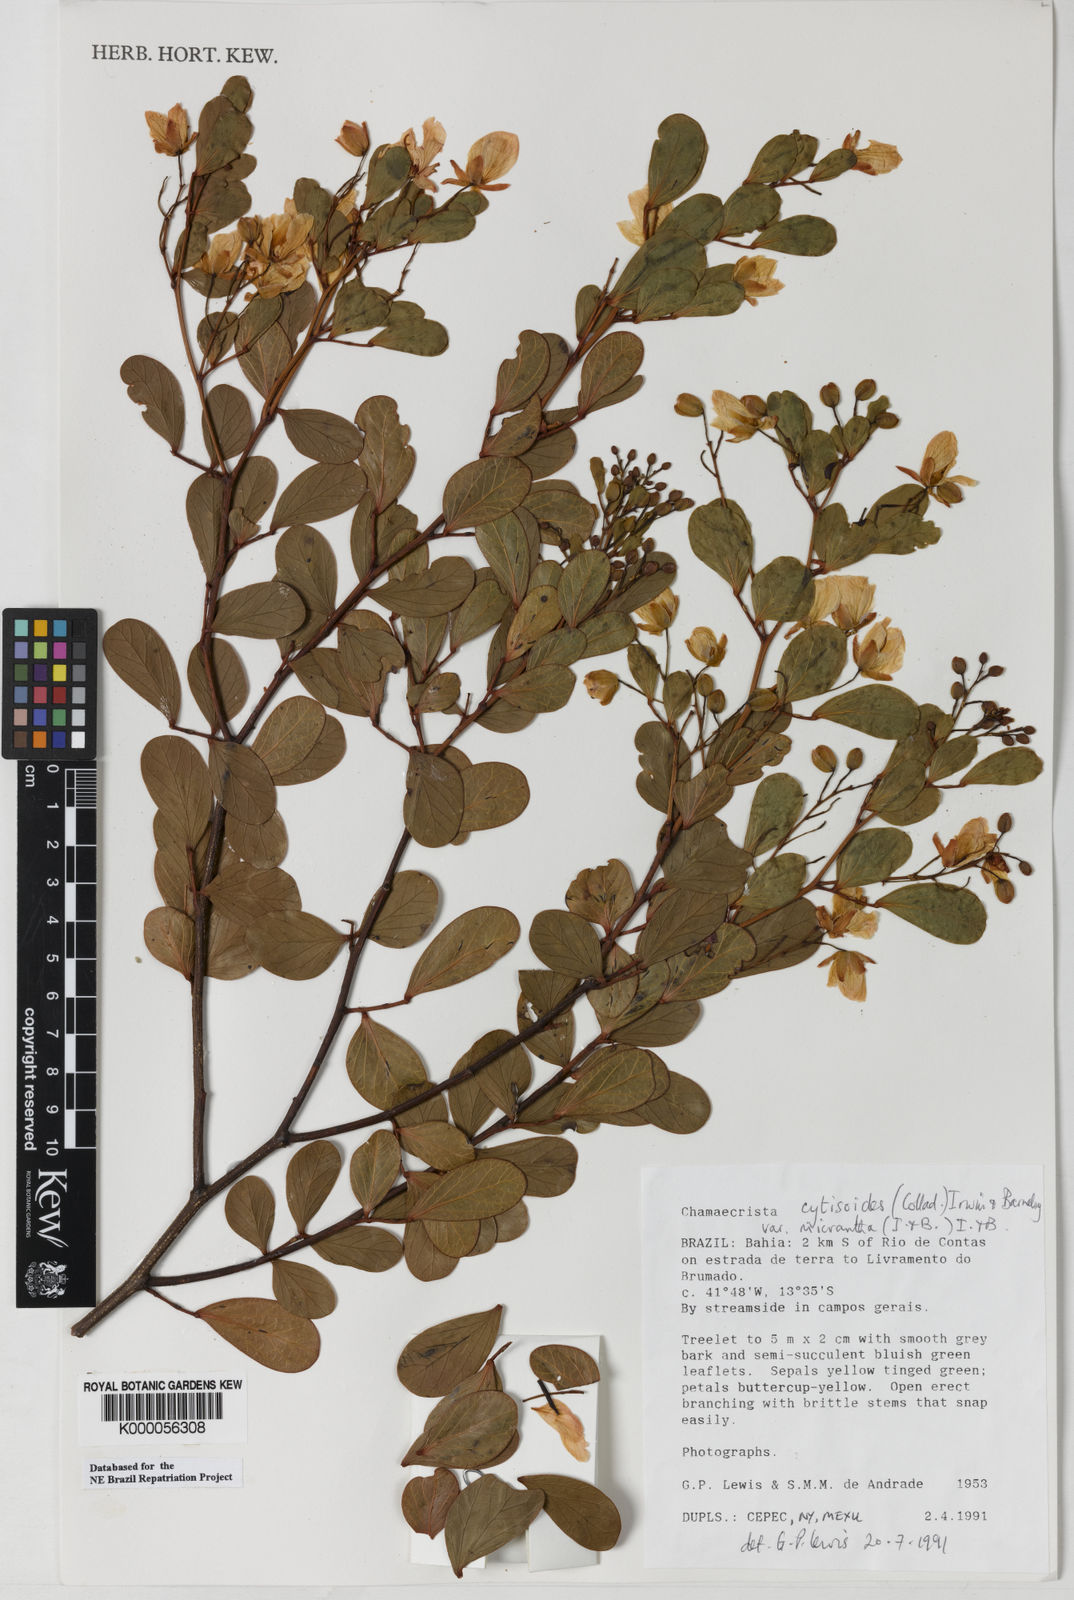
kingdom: Plantae
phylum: Tracheophyta
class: Magnoliopsida
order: Fabales
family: Fabaceae
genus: Chamaecrista
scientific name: Chamaecrista cytisoides
